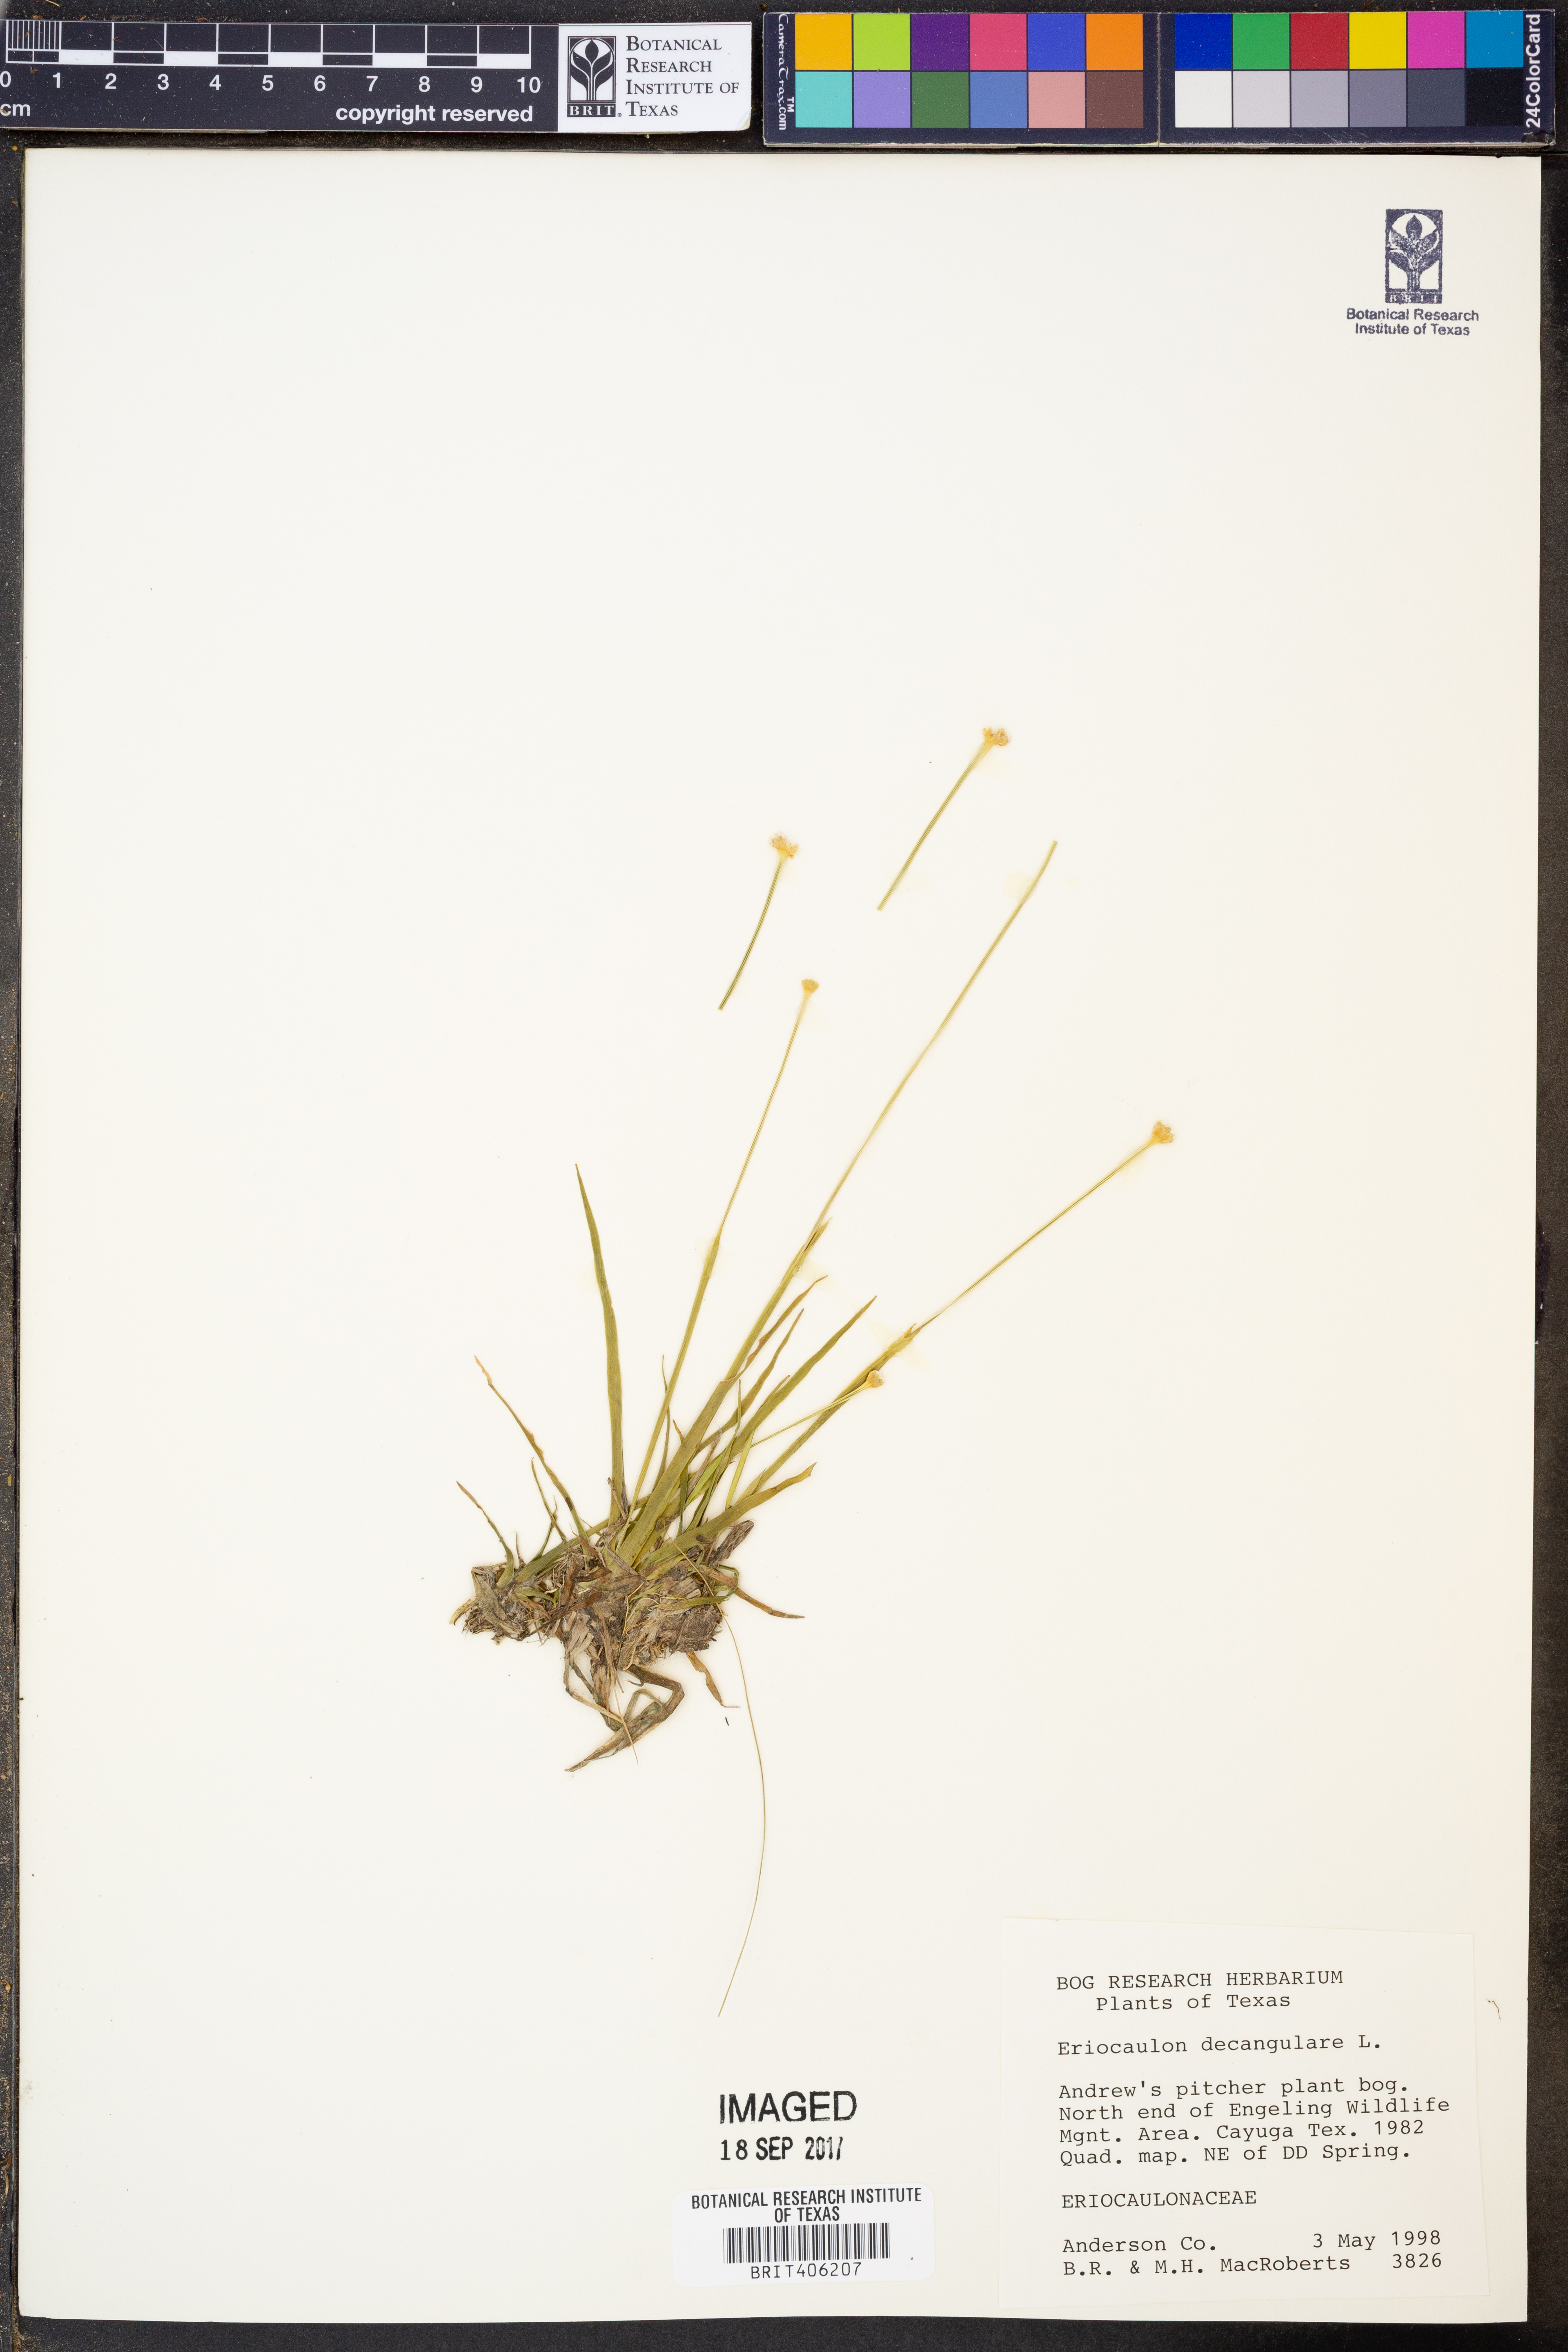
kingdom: Plantae
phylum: Tracheophyta
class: Liliopsida
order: Poales
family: Eriocaulaceae
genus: Eriocaulon
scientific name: Eriocaulon decangulare
